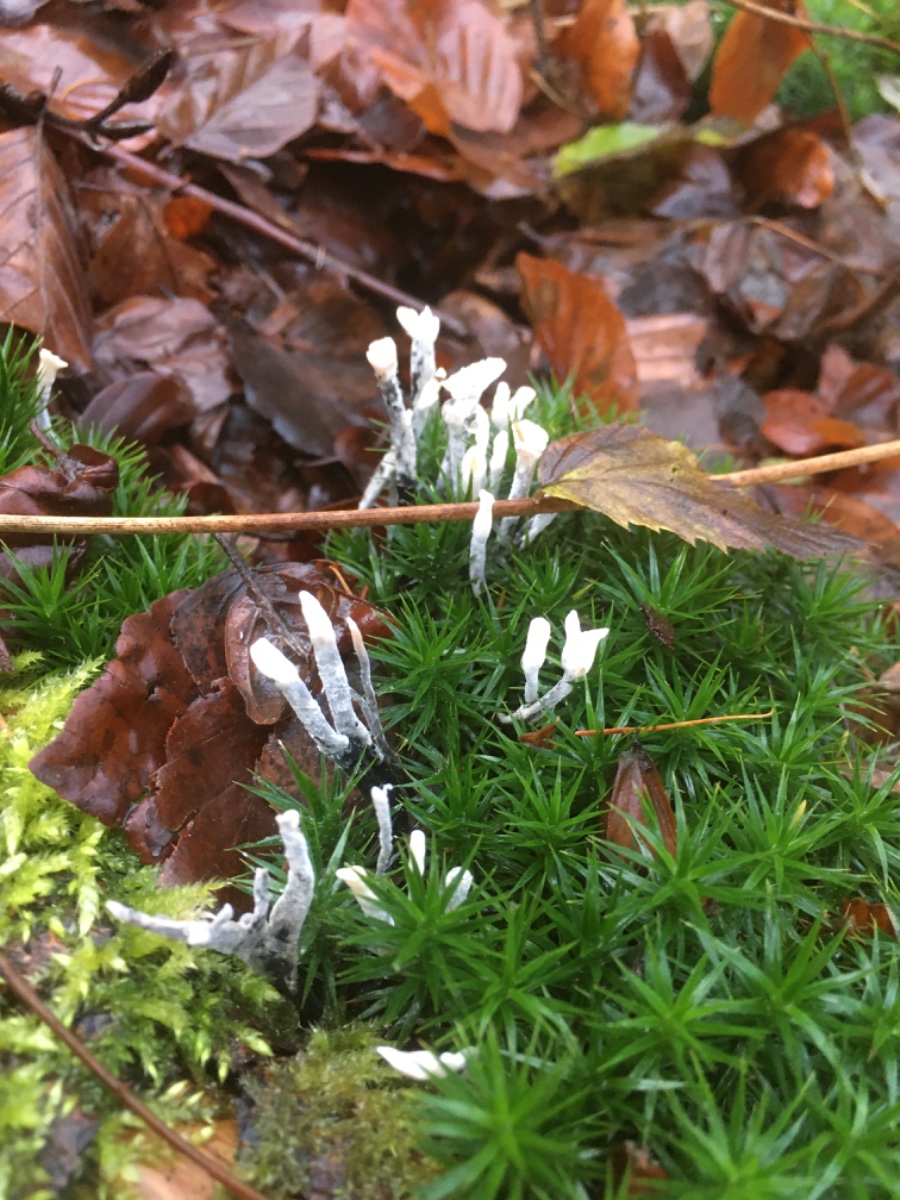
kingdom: Fungi
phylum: Ascomycota
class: Sordariomycetes
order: Xylariales
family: Xylariaceae
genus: Xylaria
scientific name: Xylaria hypoxylon
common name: grenet stødsvamp
